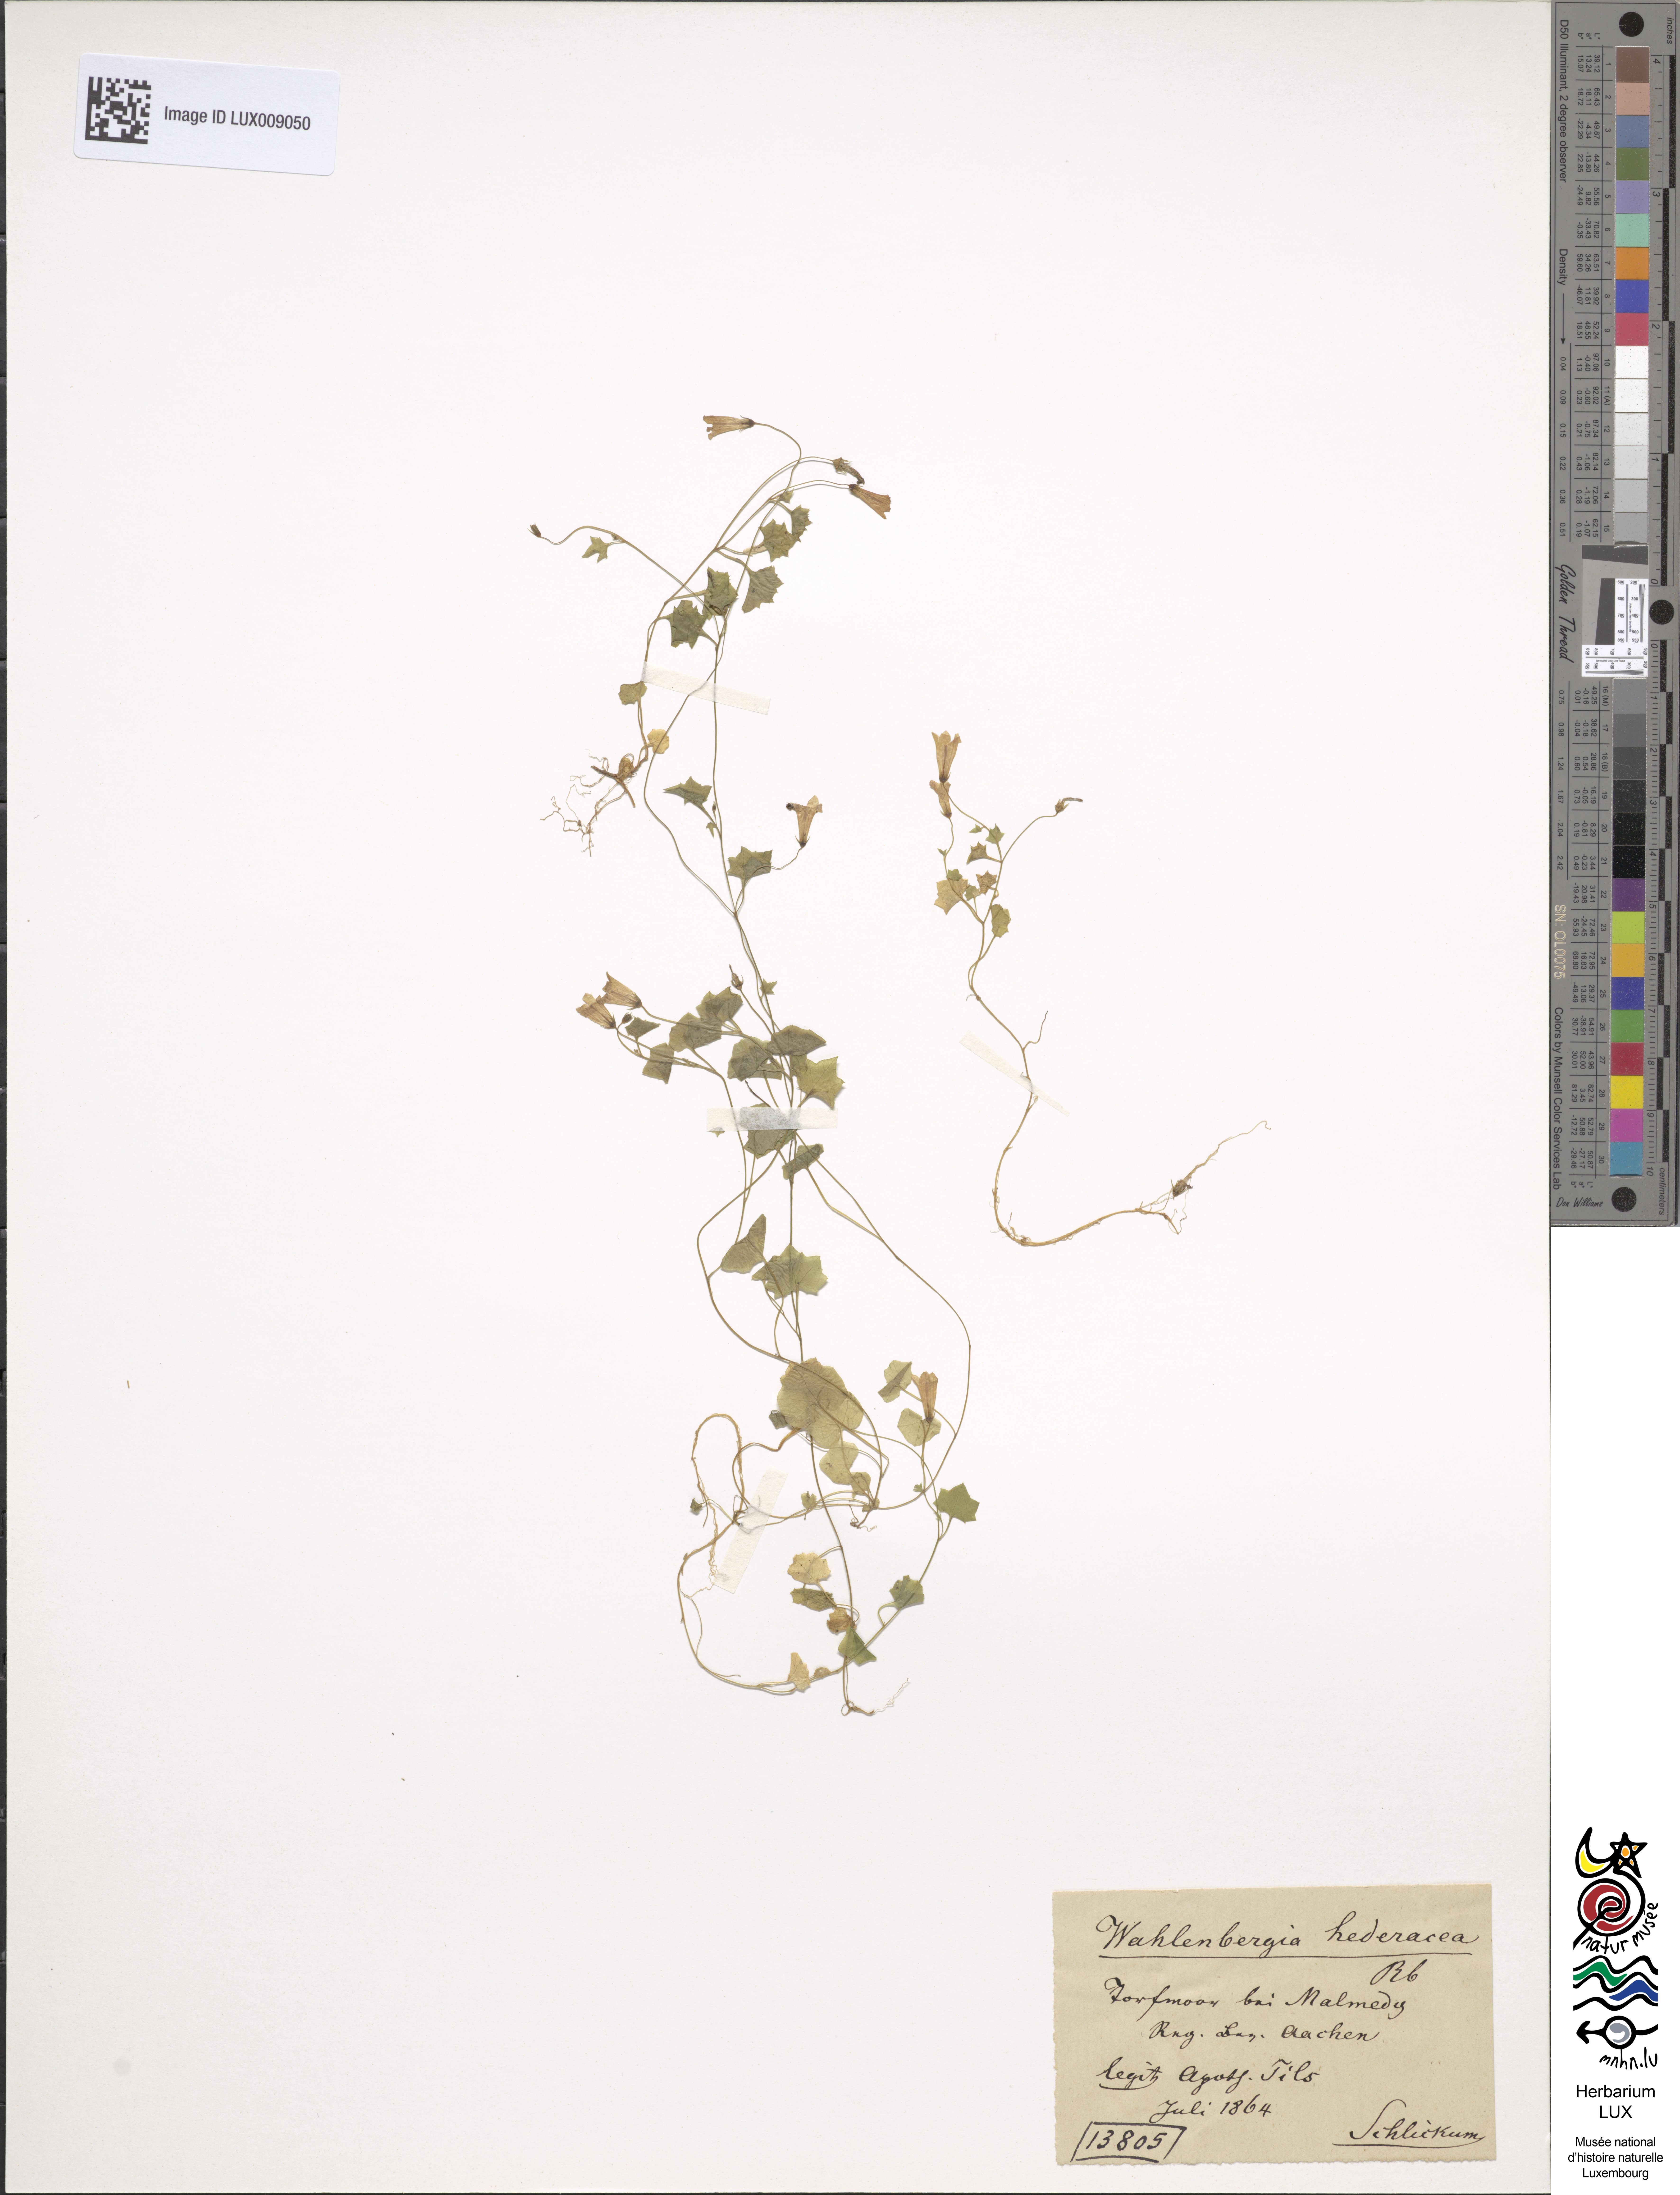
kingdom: Plantae
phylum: Tracheophyta
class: Magnoliopsida
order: Asterales
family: Campanulaceae
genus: Hesperocodon
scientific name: Hesperocodon hederaceus
